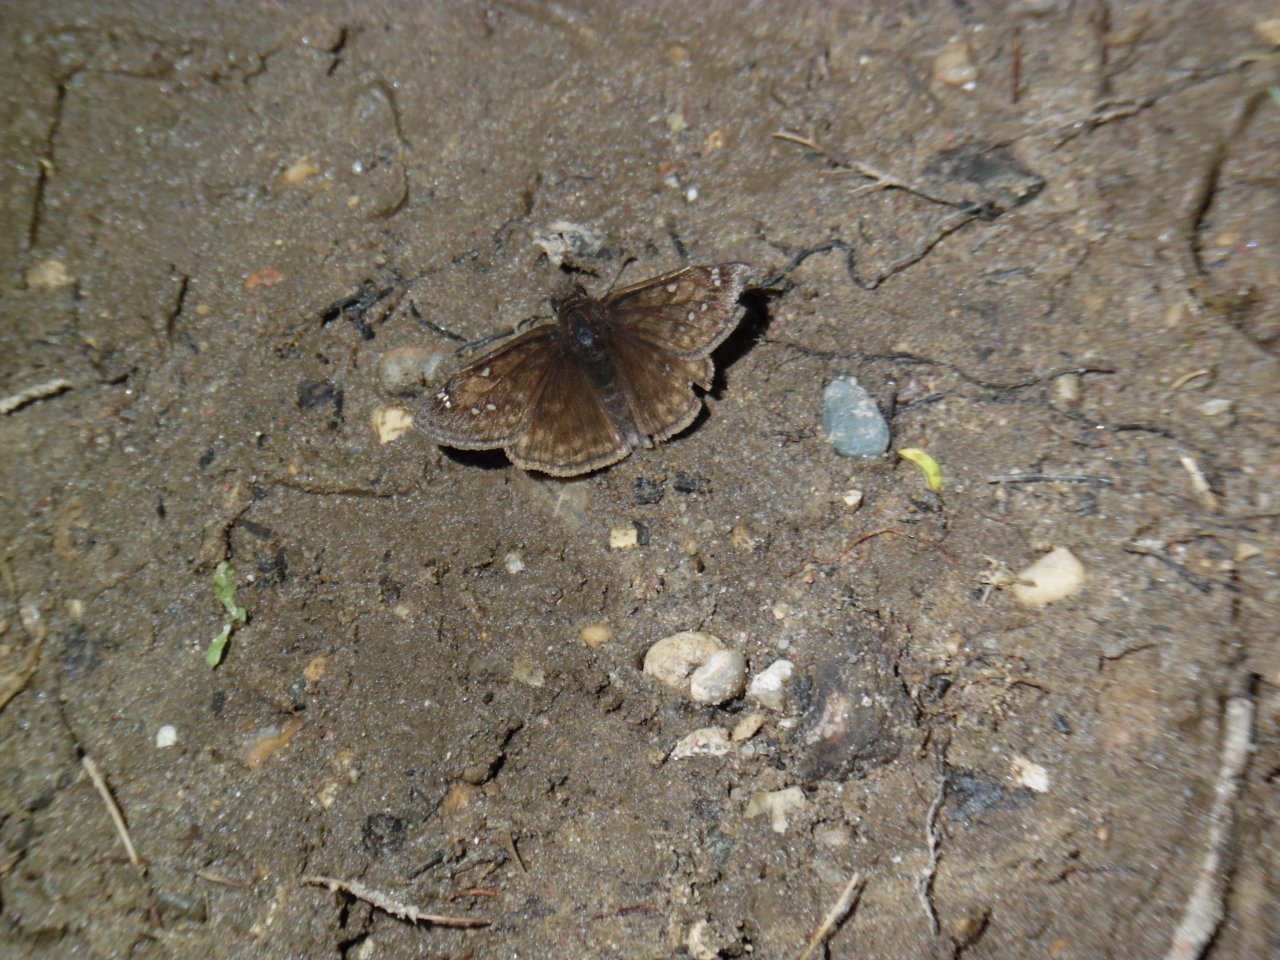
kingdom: Animalia
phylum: Arthropoda
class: Insecta
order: Lepidoptera
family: Hesperiidae
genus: Gesta
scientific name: Gesta
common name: Juvenal's Duskywing
